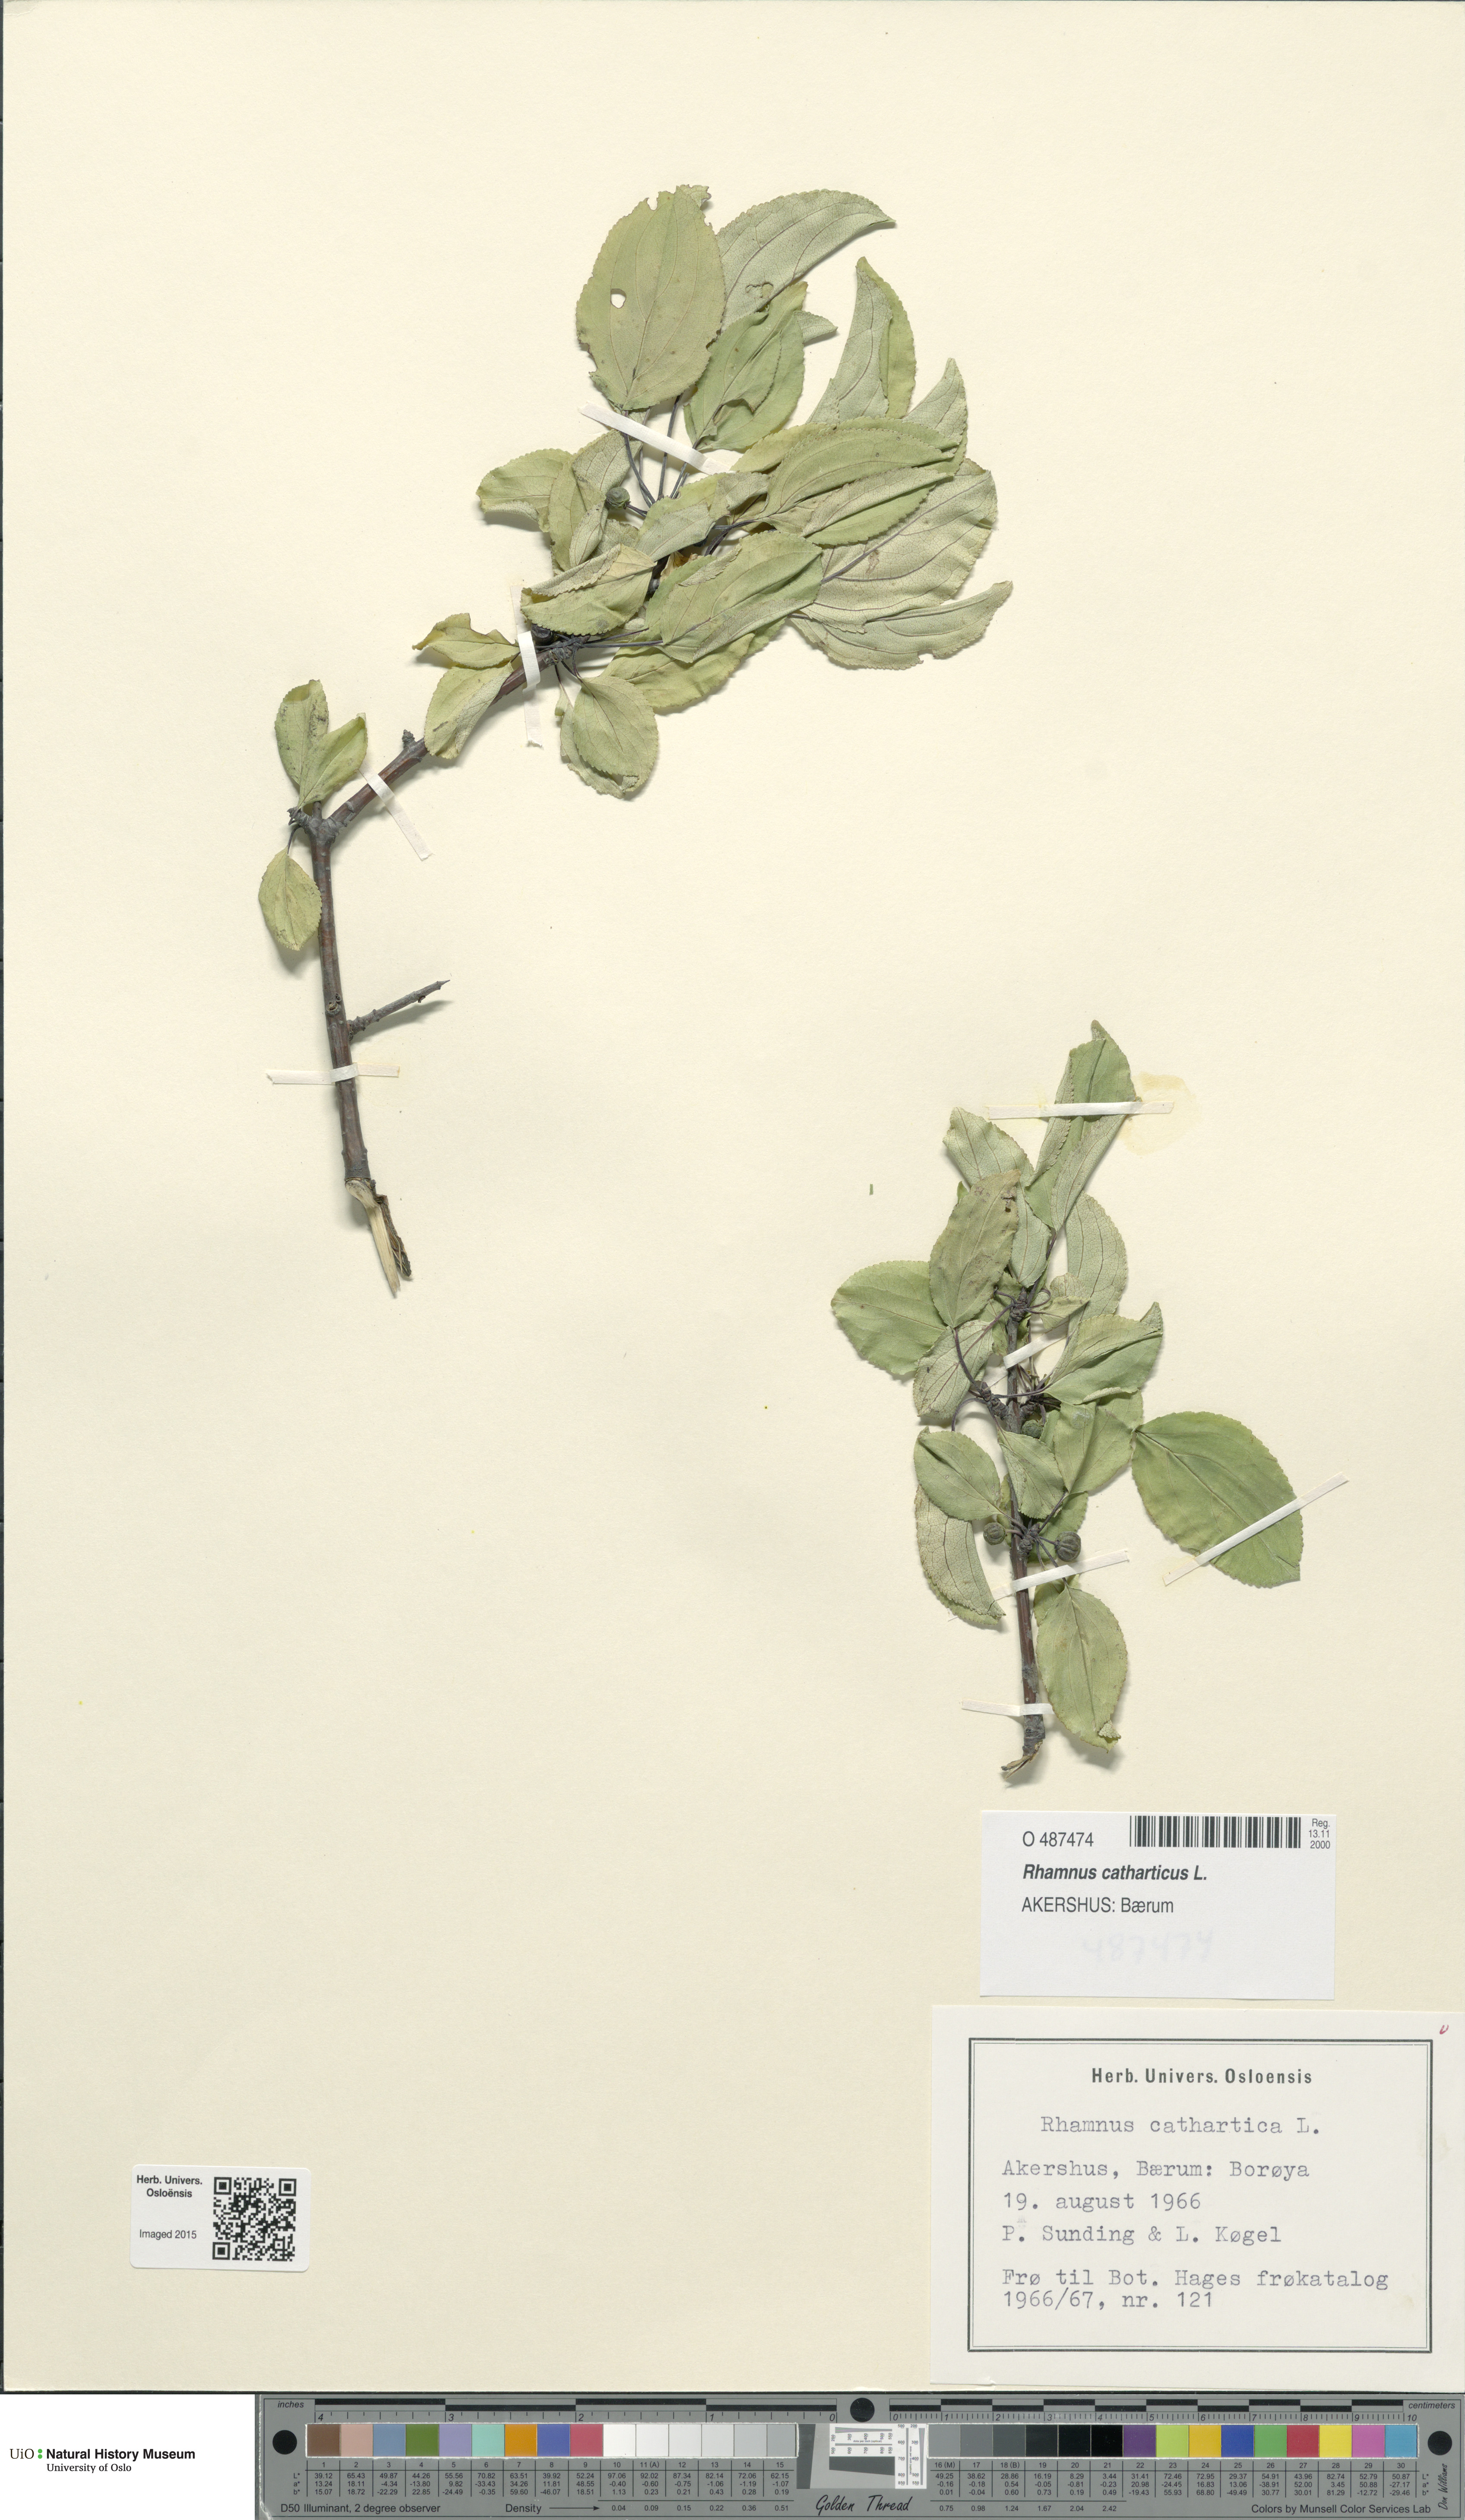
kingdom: Plantae
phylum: Tracheophyta
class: Magnoliopsida
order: Rosales
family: Rhamnaceae
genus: Rhamnus
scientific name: Rhamnus cathartica
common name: Common buckthorn
